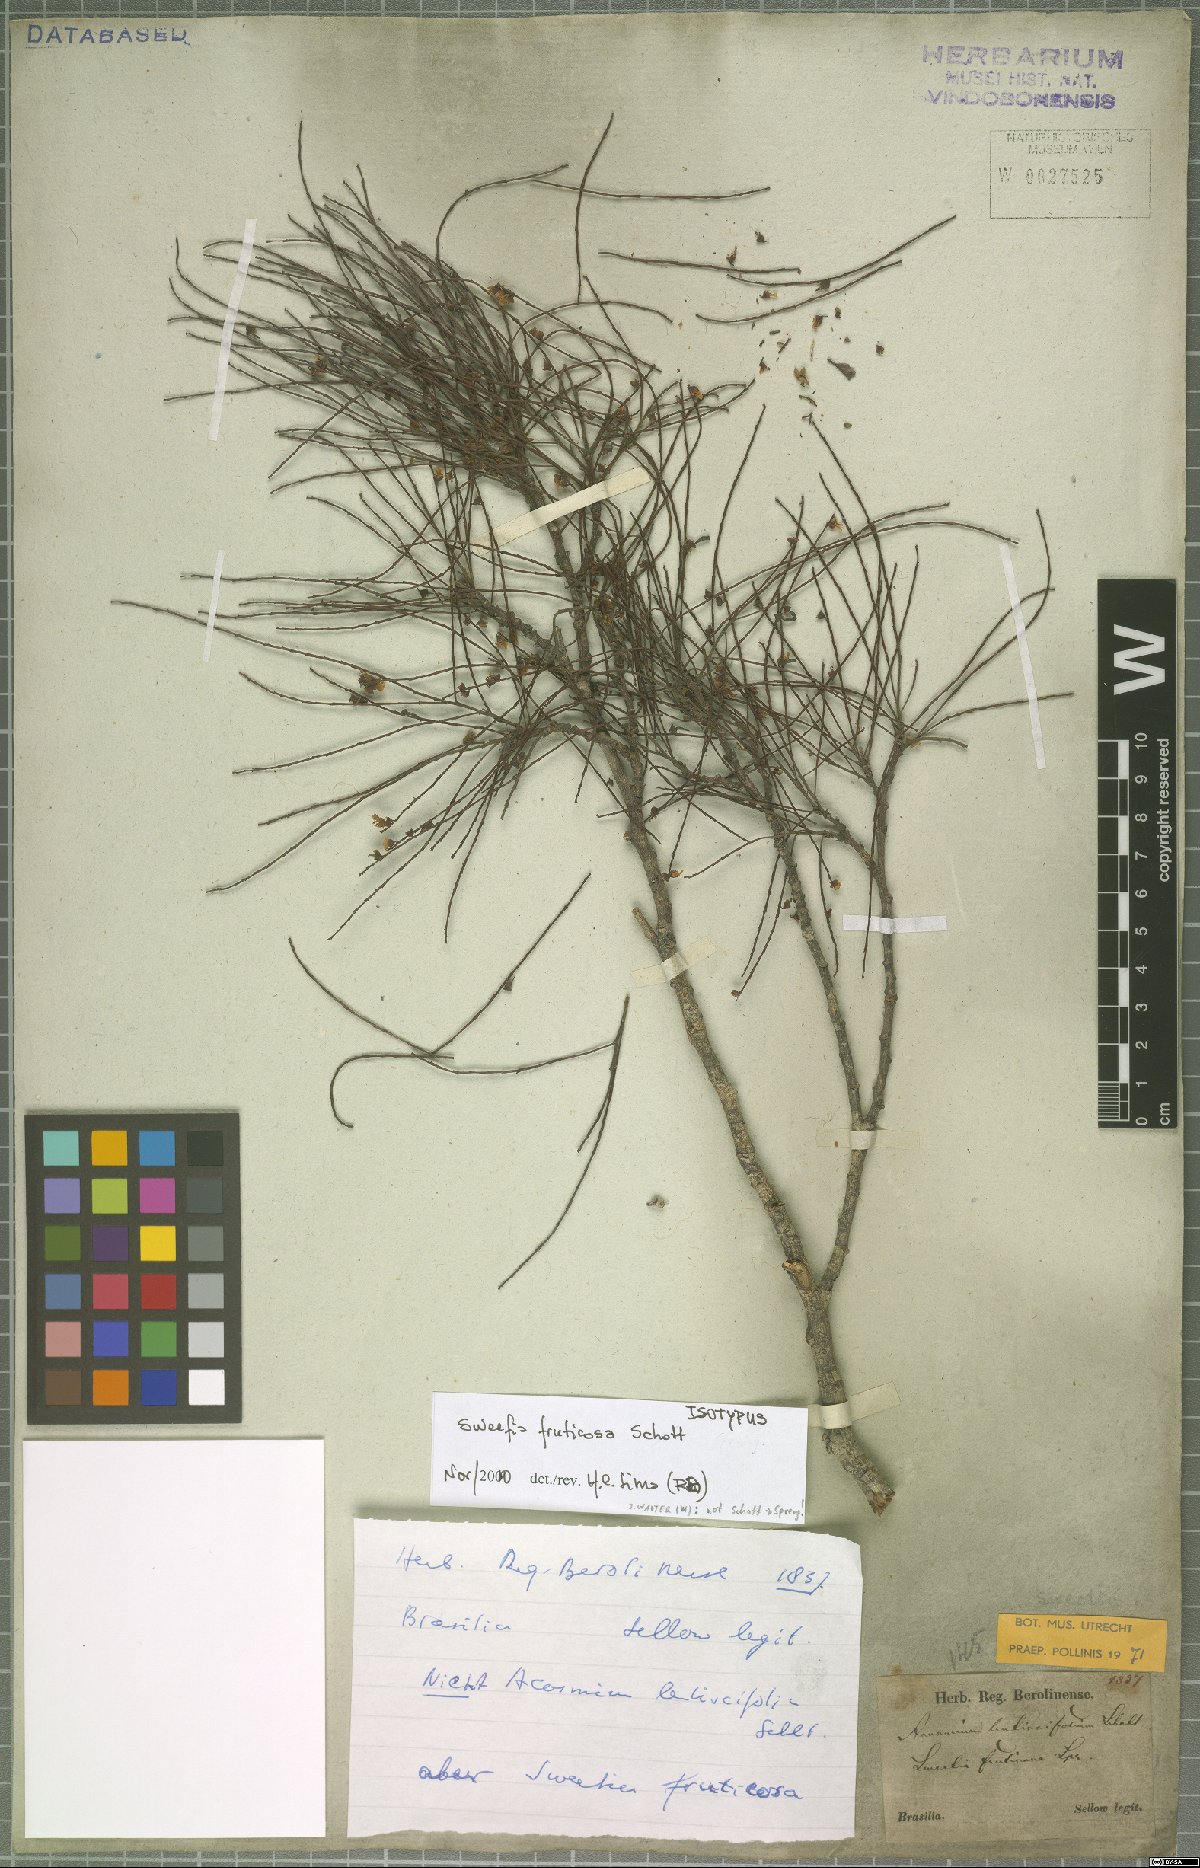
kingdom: Plantae
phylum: Tracheophyta
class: Magnoliopsida
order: Fabales
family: Fabaceae
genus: Sweetia
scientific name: Sweetia fruticosa
